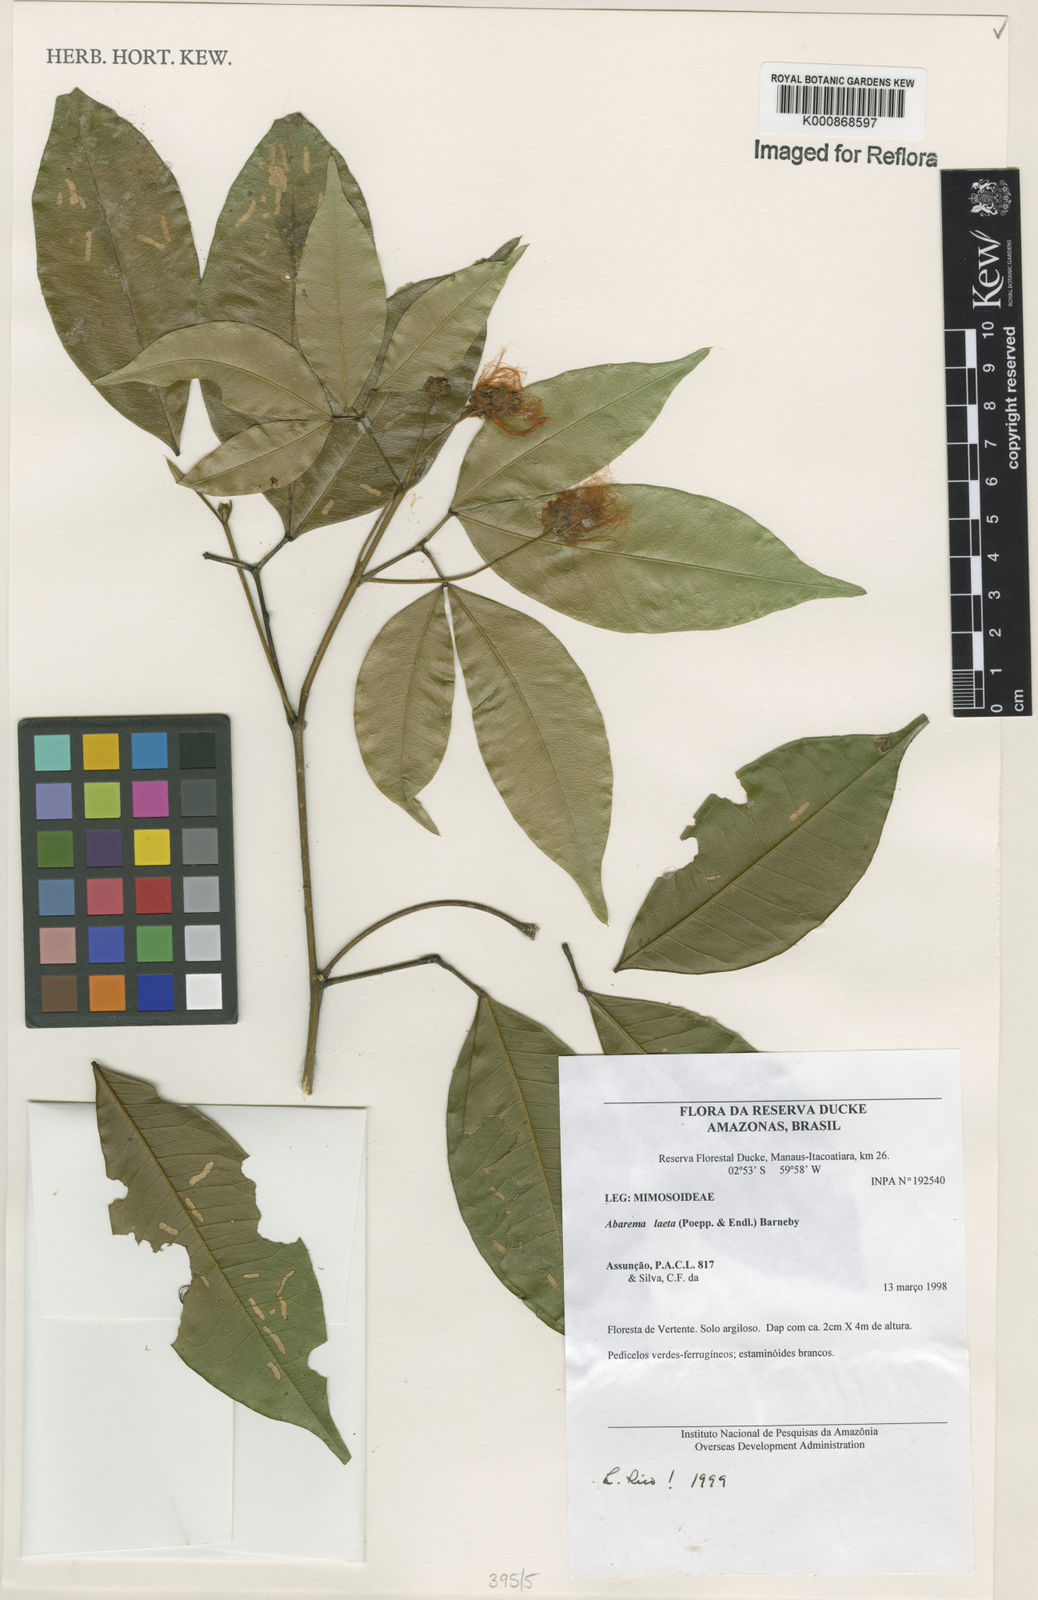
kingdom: Plantae
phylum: Tracheophyta
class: Magnoliopsida
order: Fabales
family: Fabaceae
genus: Jupunba
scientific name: Jupunba laeta
